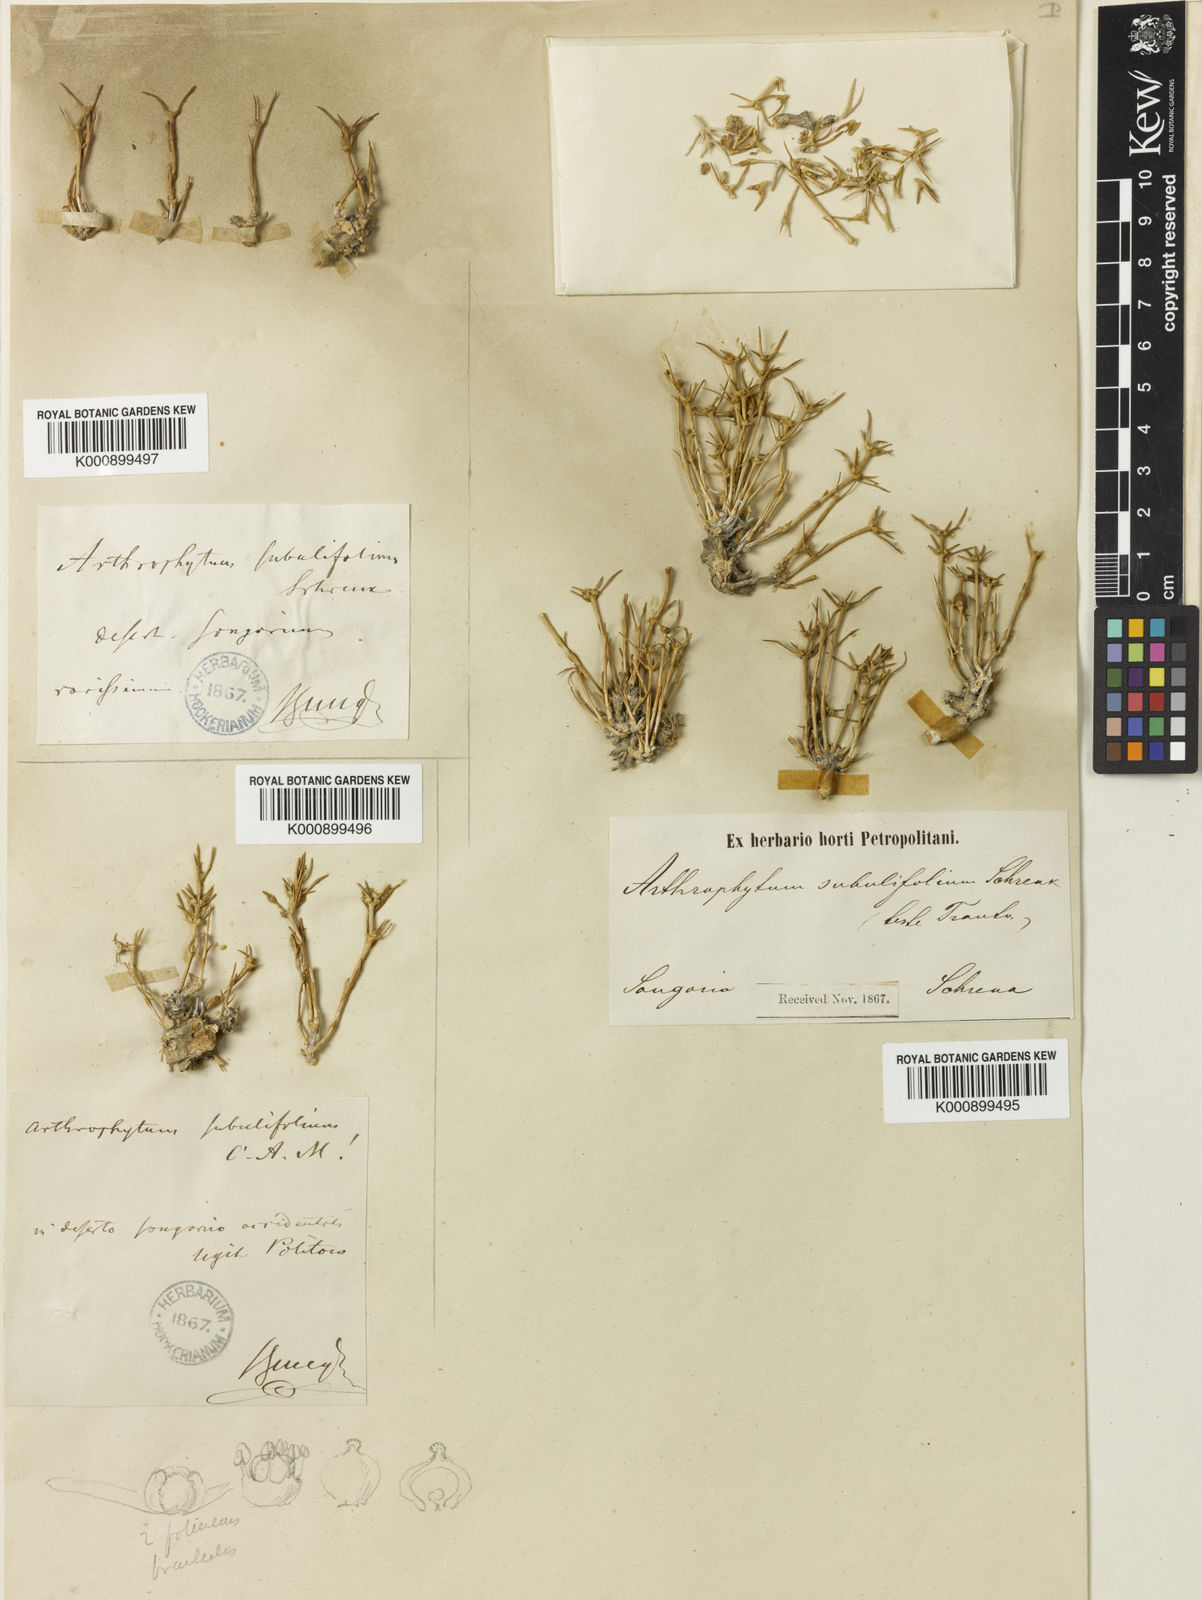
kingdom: Plantae
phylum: Tracheophyta
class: Magnoliopsida
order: Caryophyllales
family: Amaranthaceae
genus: Arthrophytum
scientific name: Arthrophytum subulifolium
